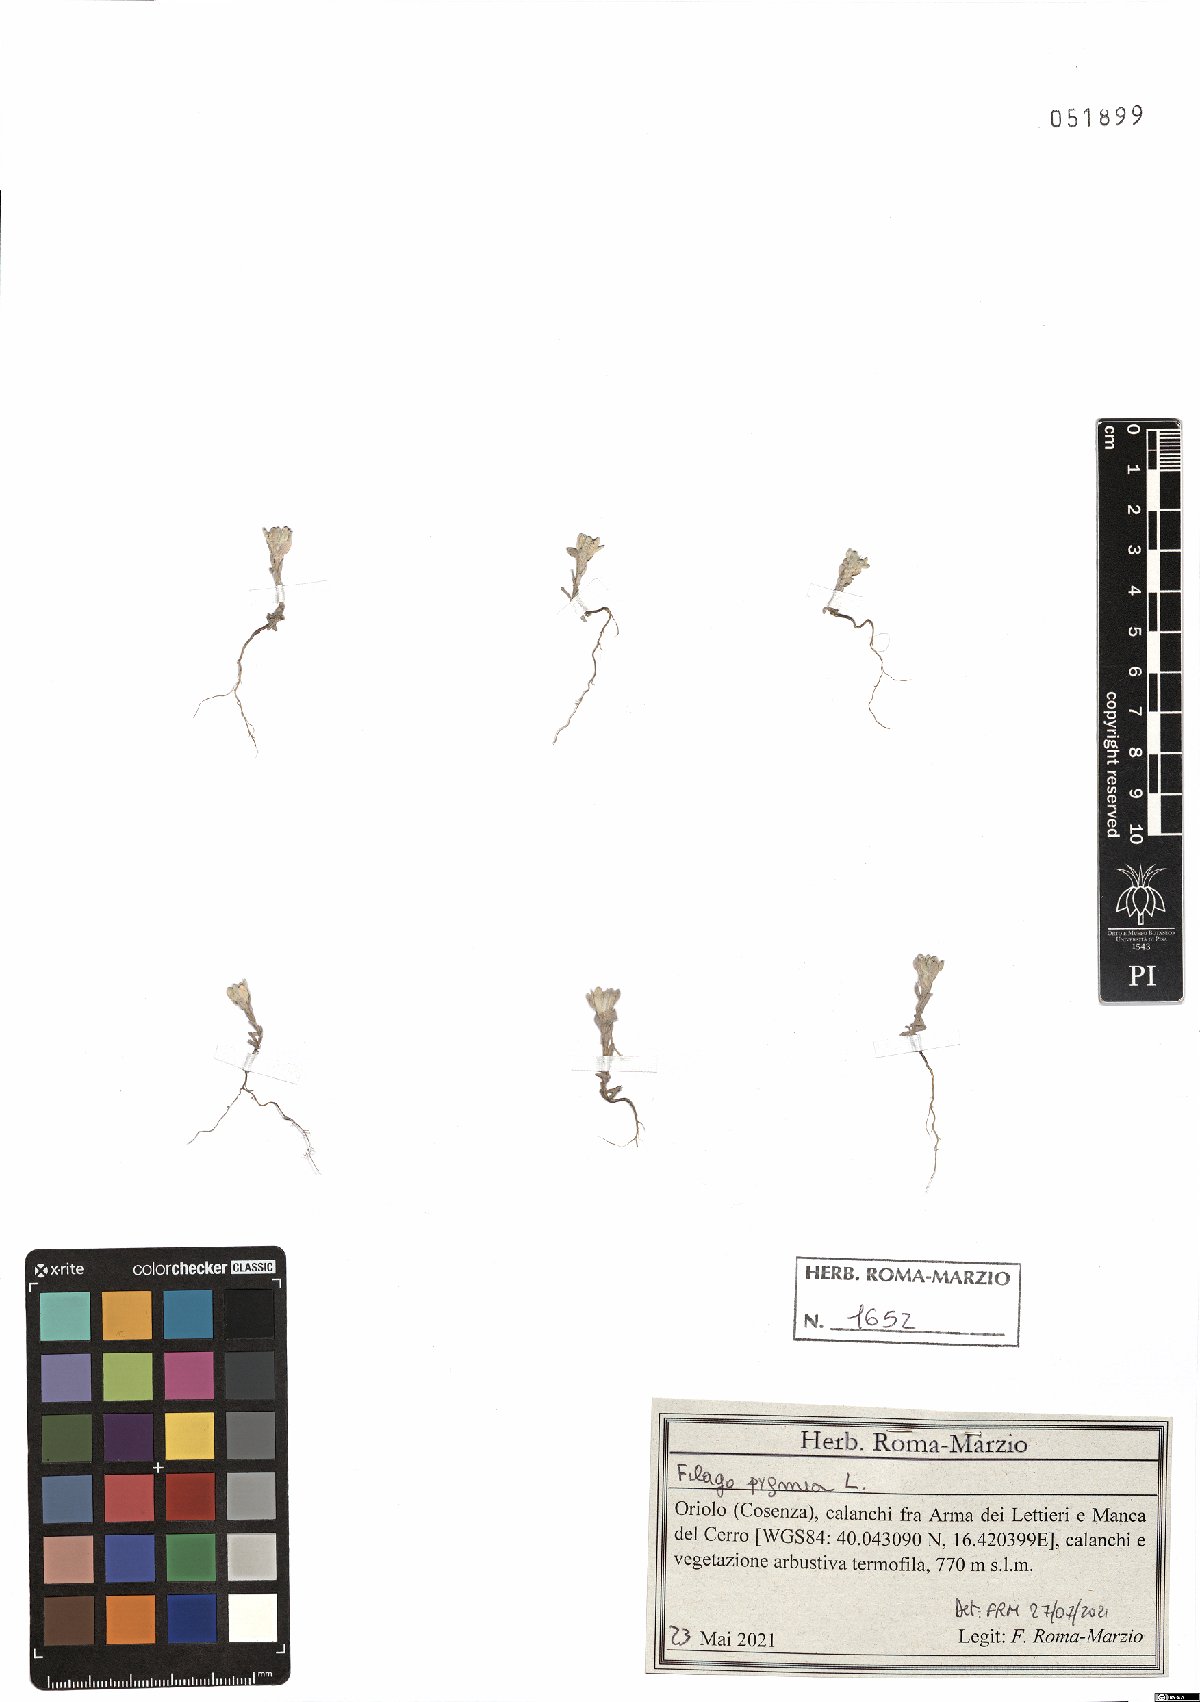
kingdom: Plantae
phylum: Tracheophyta
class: Magnoliopsida
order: Asterales
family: Asteraceae
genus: Filago
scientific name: Filago pygmaea
